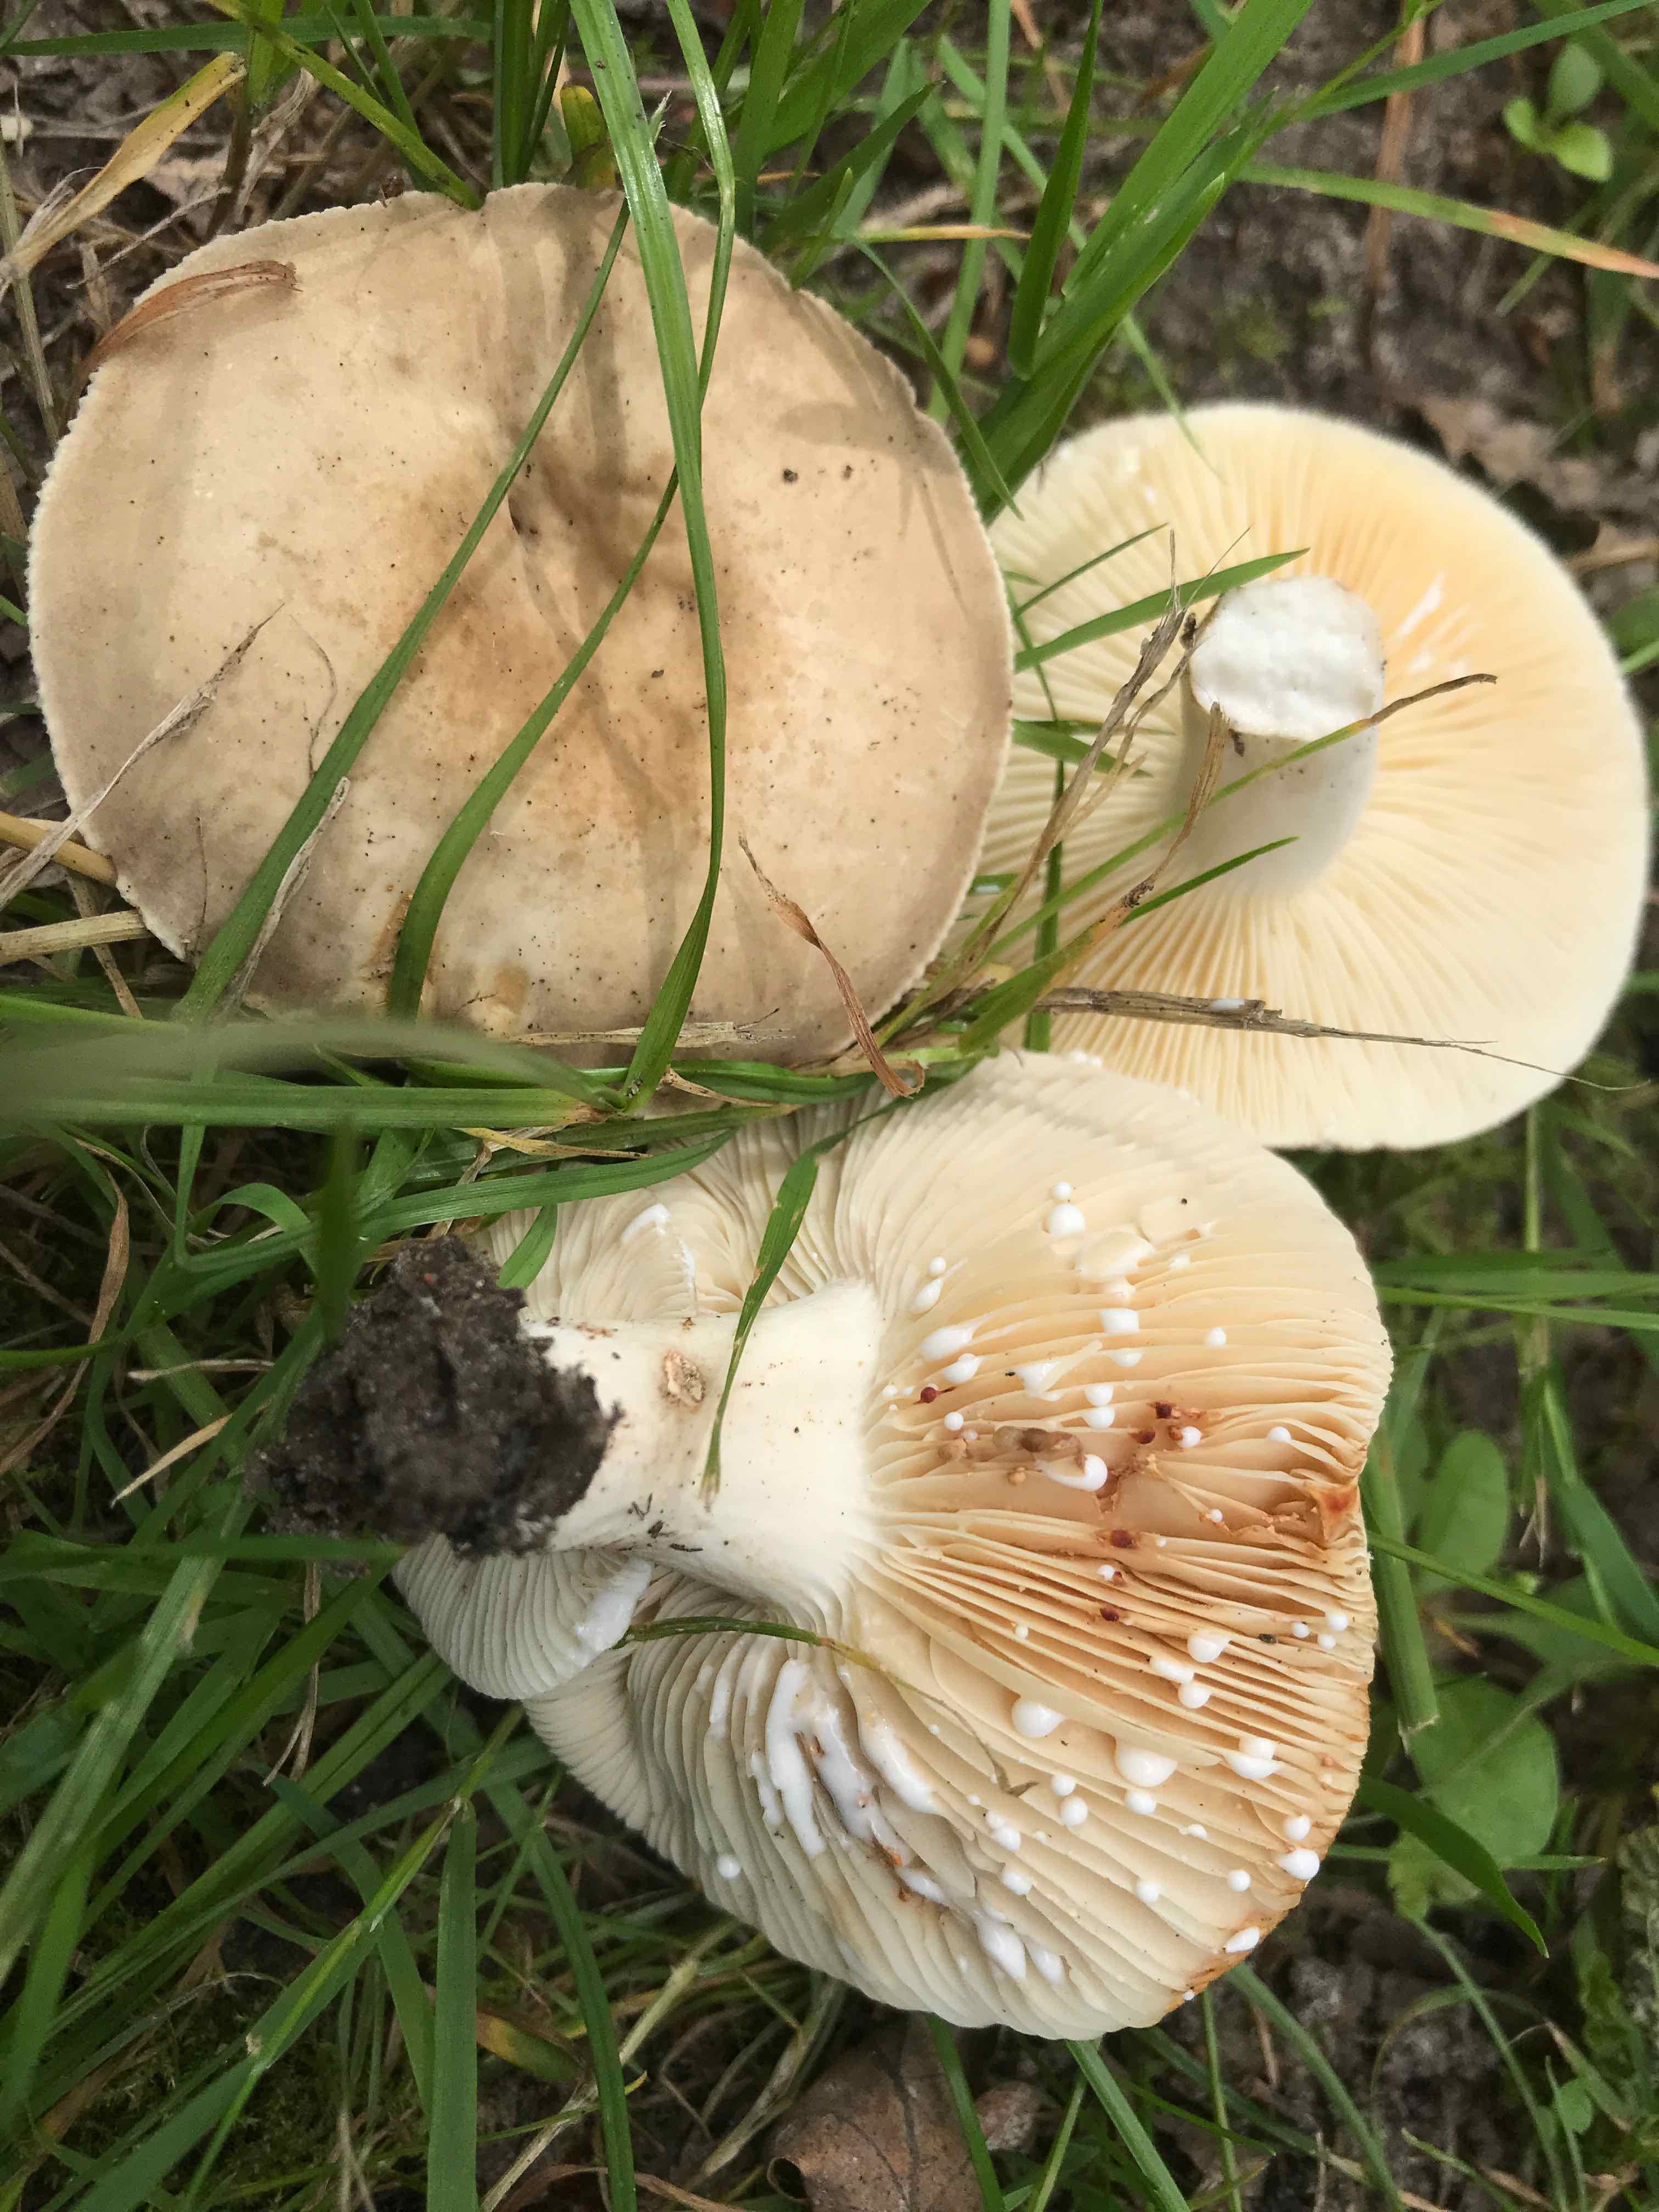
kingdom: Fungi
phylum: Basidiomycota
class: Agaricomycetes
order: Russulales
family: Russulaceae
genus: Lactarius
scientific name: Lactarius azonites
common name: røggrå mælkehat
